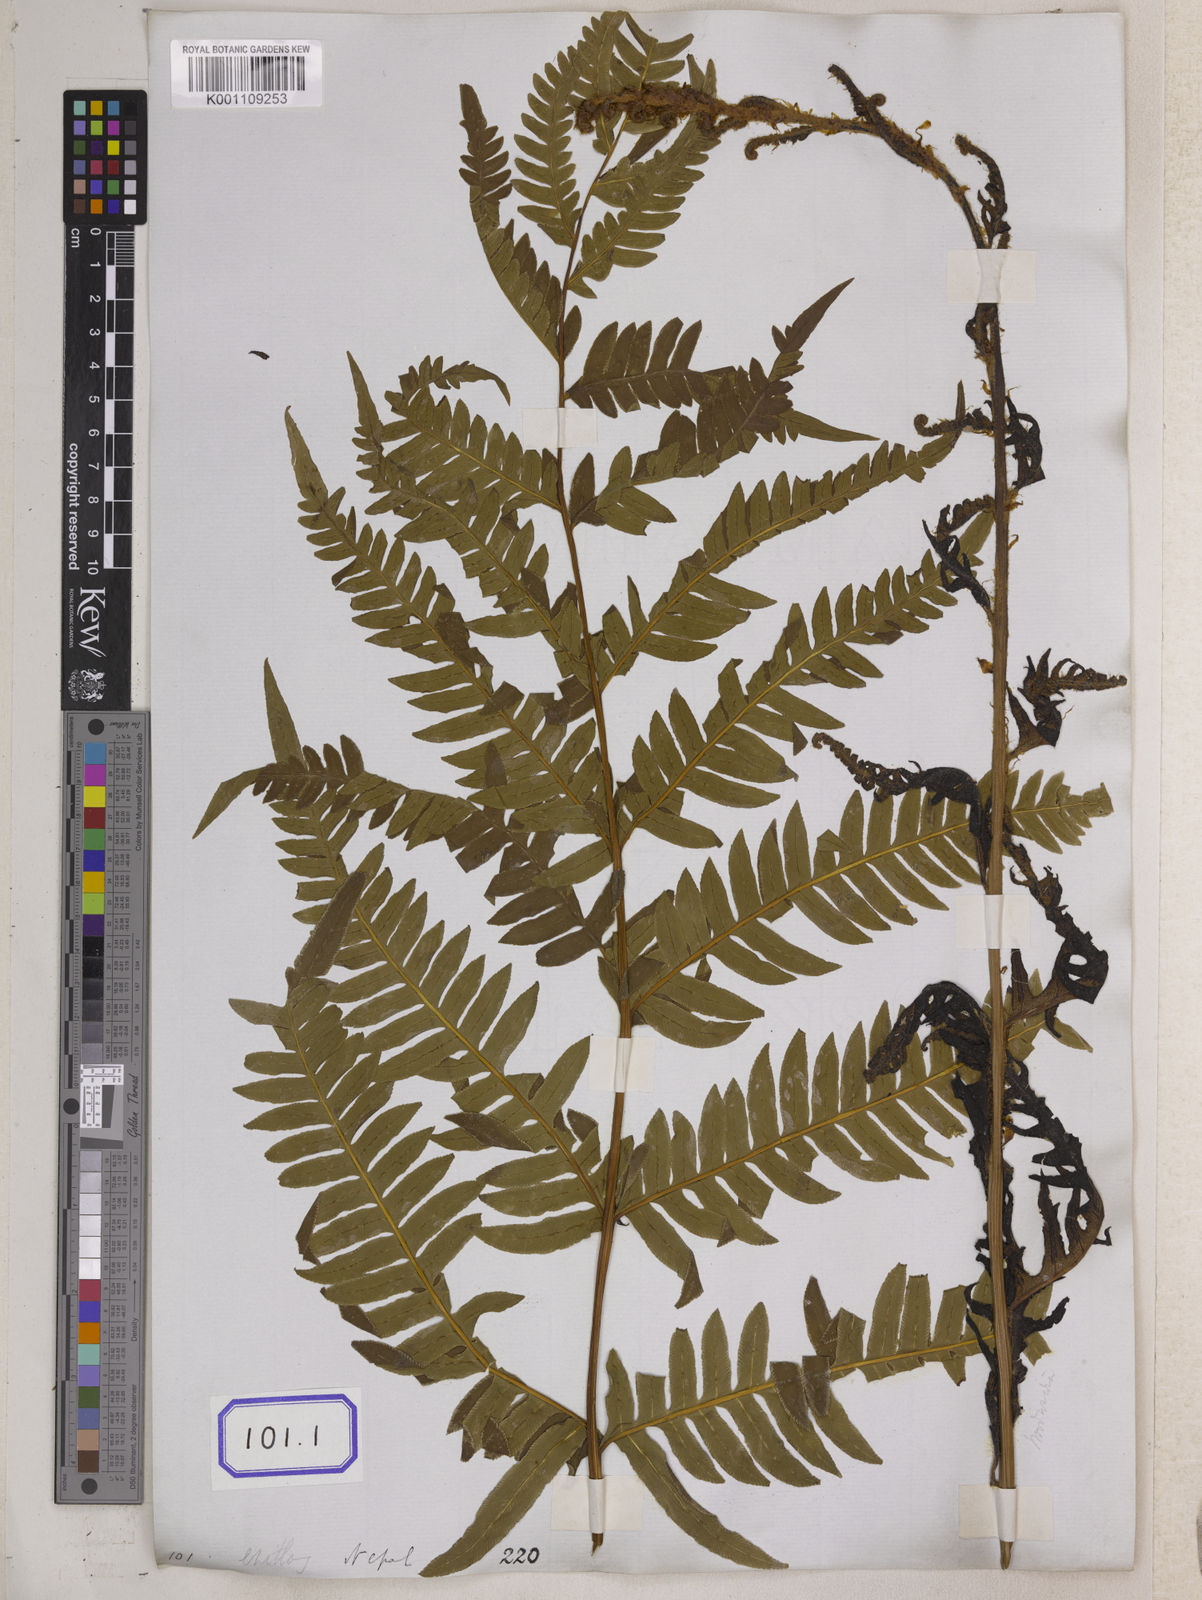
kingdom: Plantae
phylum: Tracheophyta
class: Polypodiopsida
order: Polypodiales
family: Pteridaceae
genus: Pteris
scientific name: Pteris terminalis
